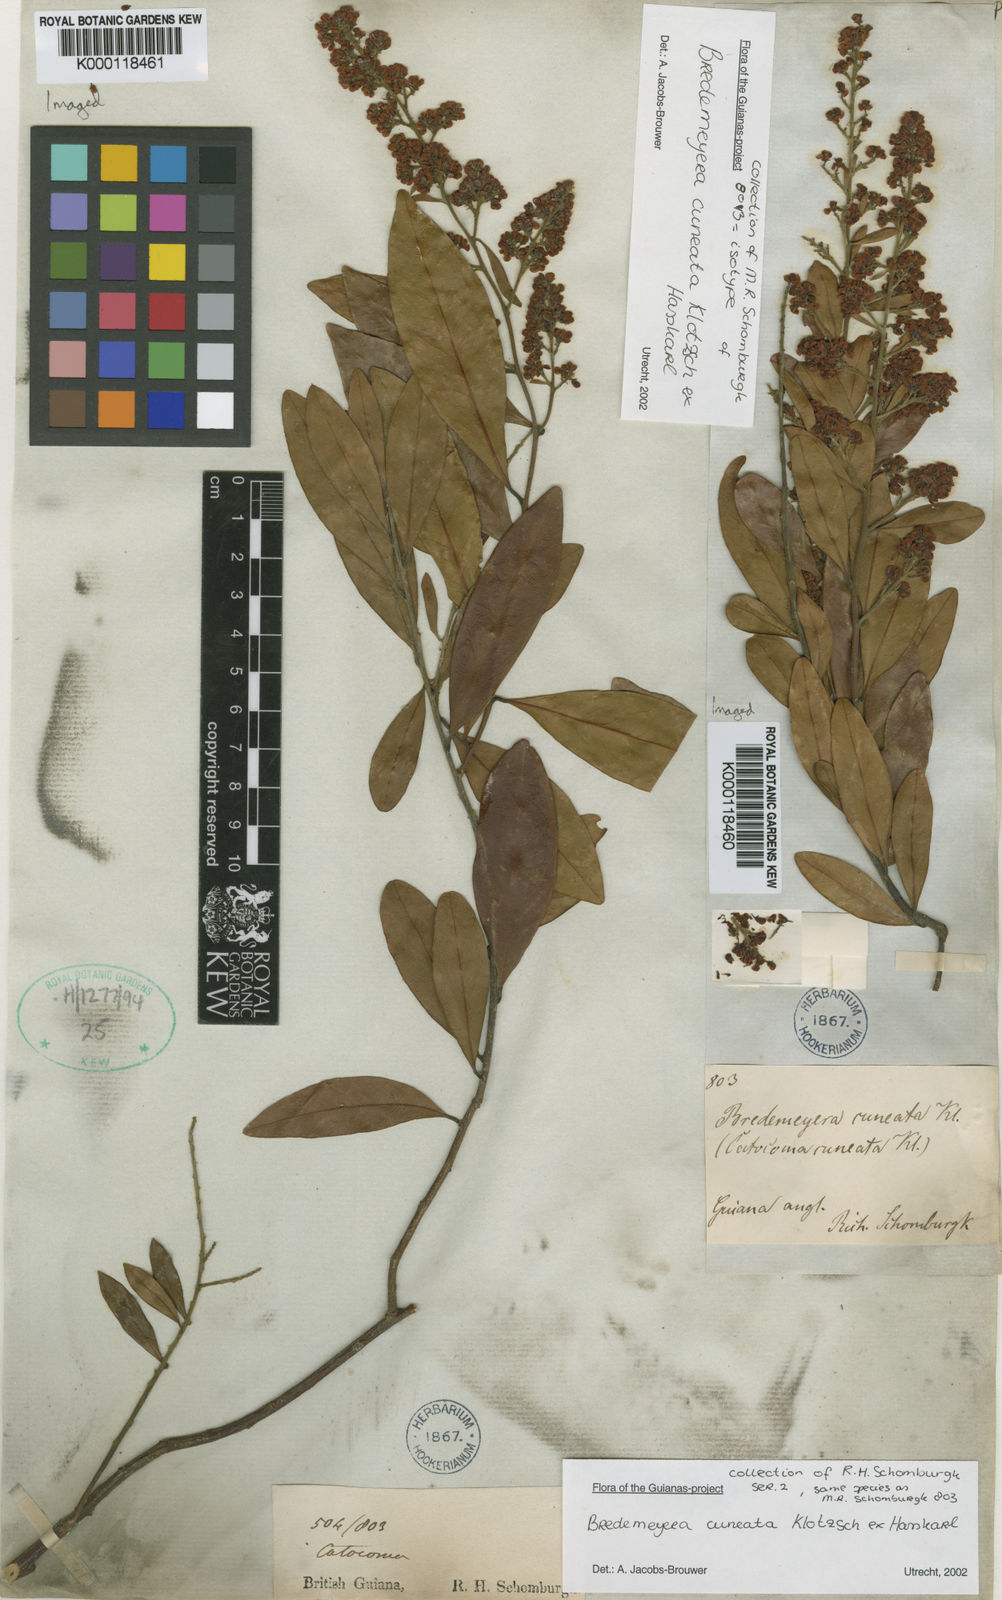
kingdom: Plantae
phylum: Tracheophyta
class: Magnoliopsida
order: Fabales
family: Polygalaceae
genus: Bredemeyera
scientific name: Bredemeyera cuneata
